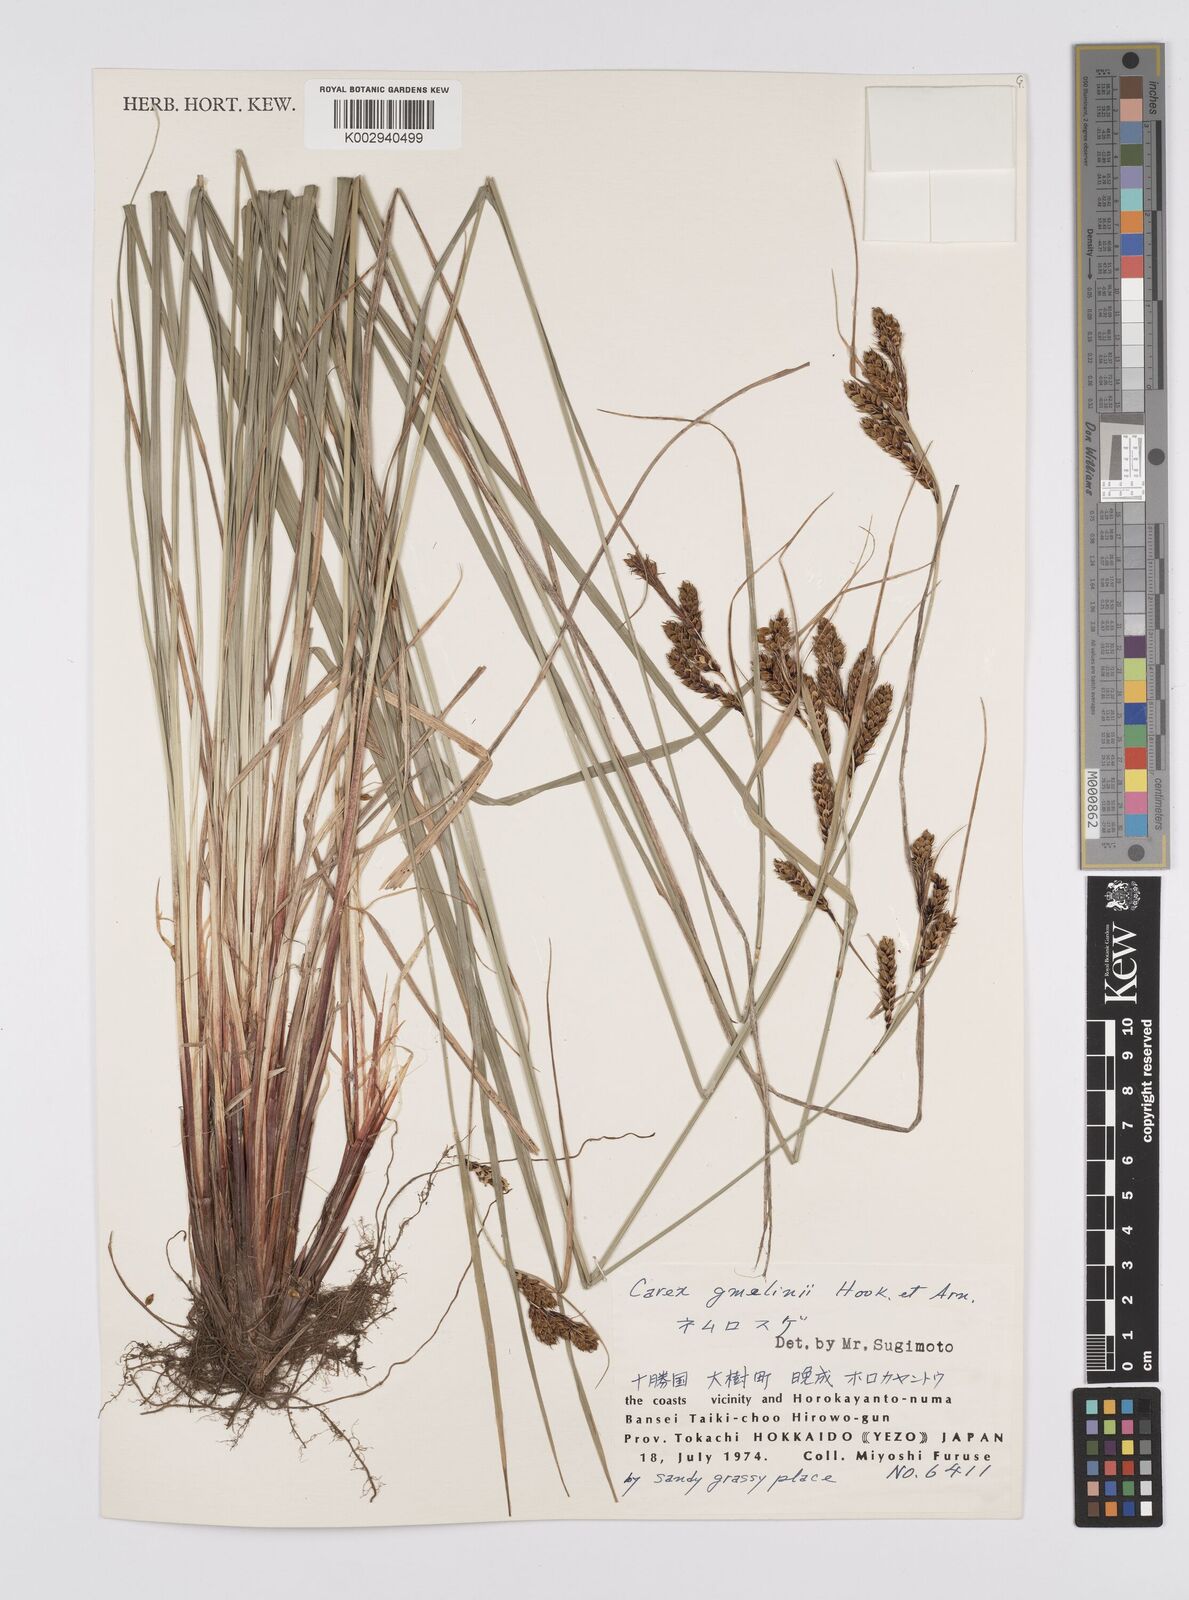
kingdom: Plantae
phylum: Tracheophyta
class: Liliopsida
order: Poales
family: Cyperaceae
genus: Carex
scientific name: Carex gmelinii
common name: Gmelin's sedge
